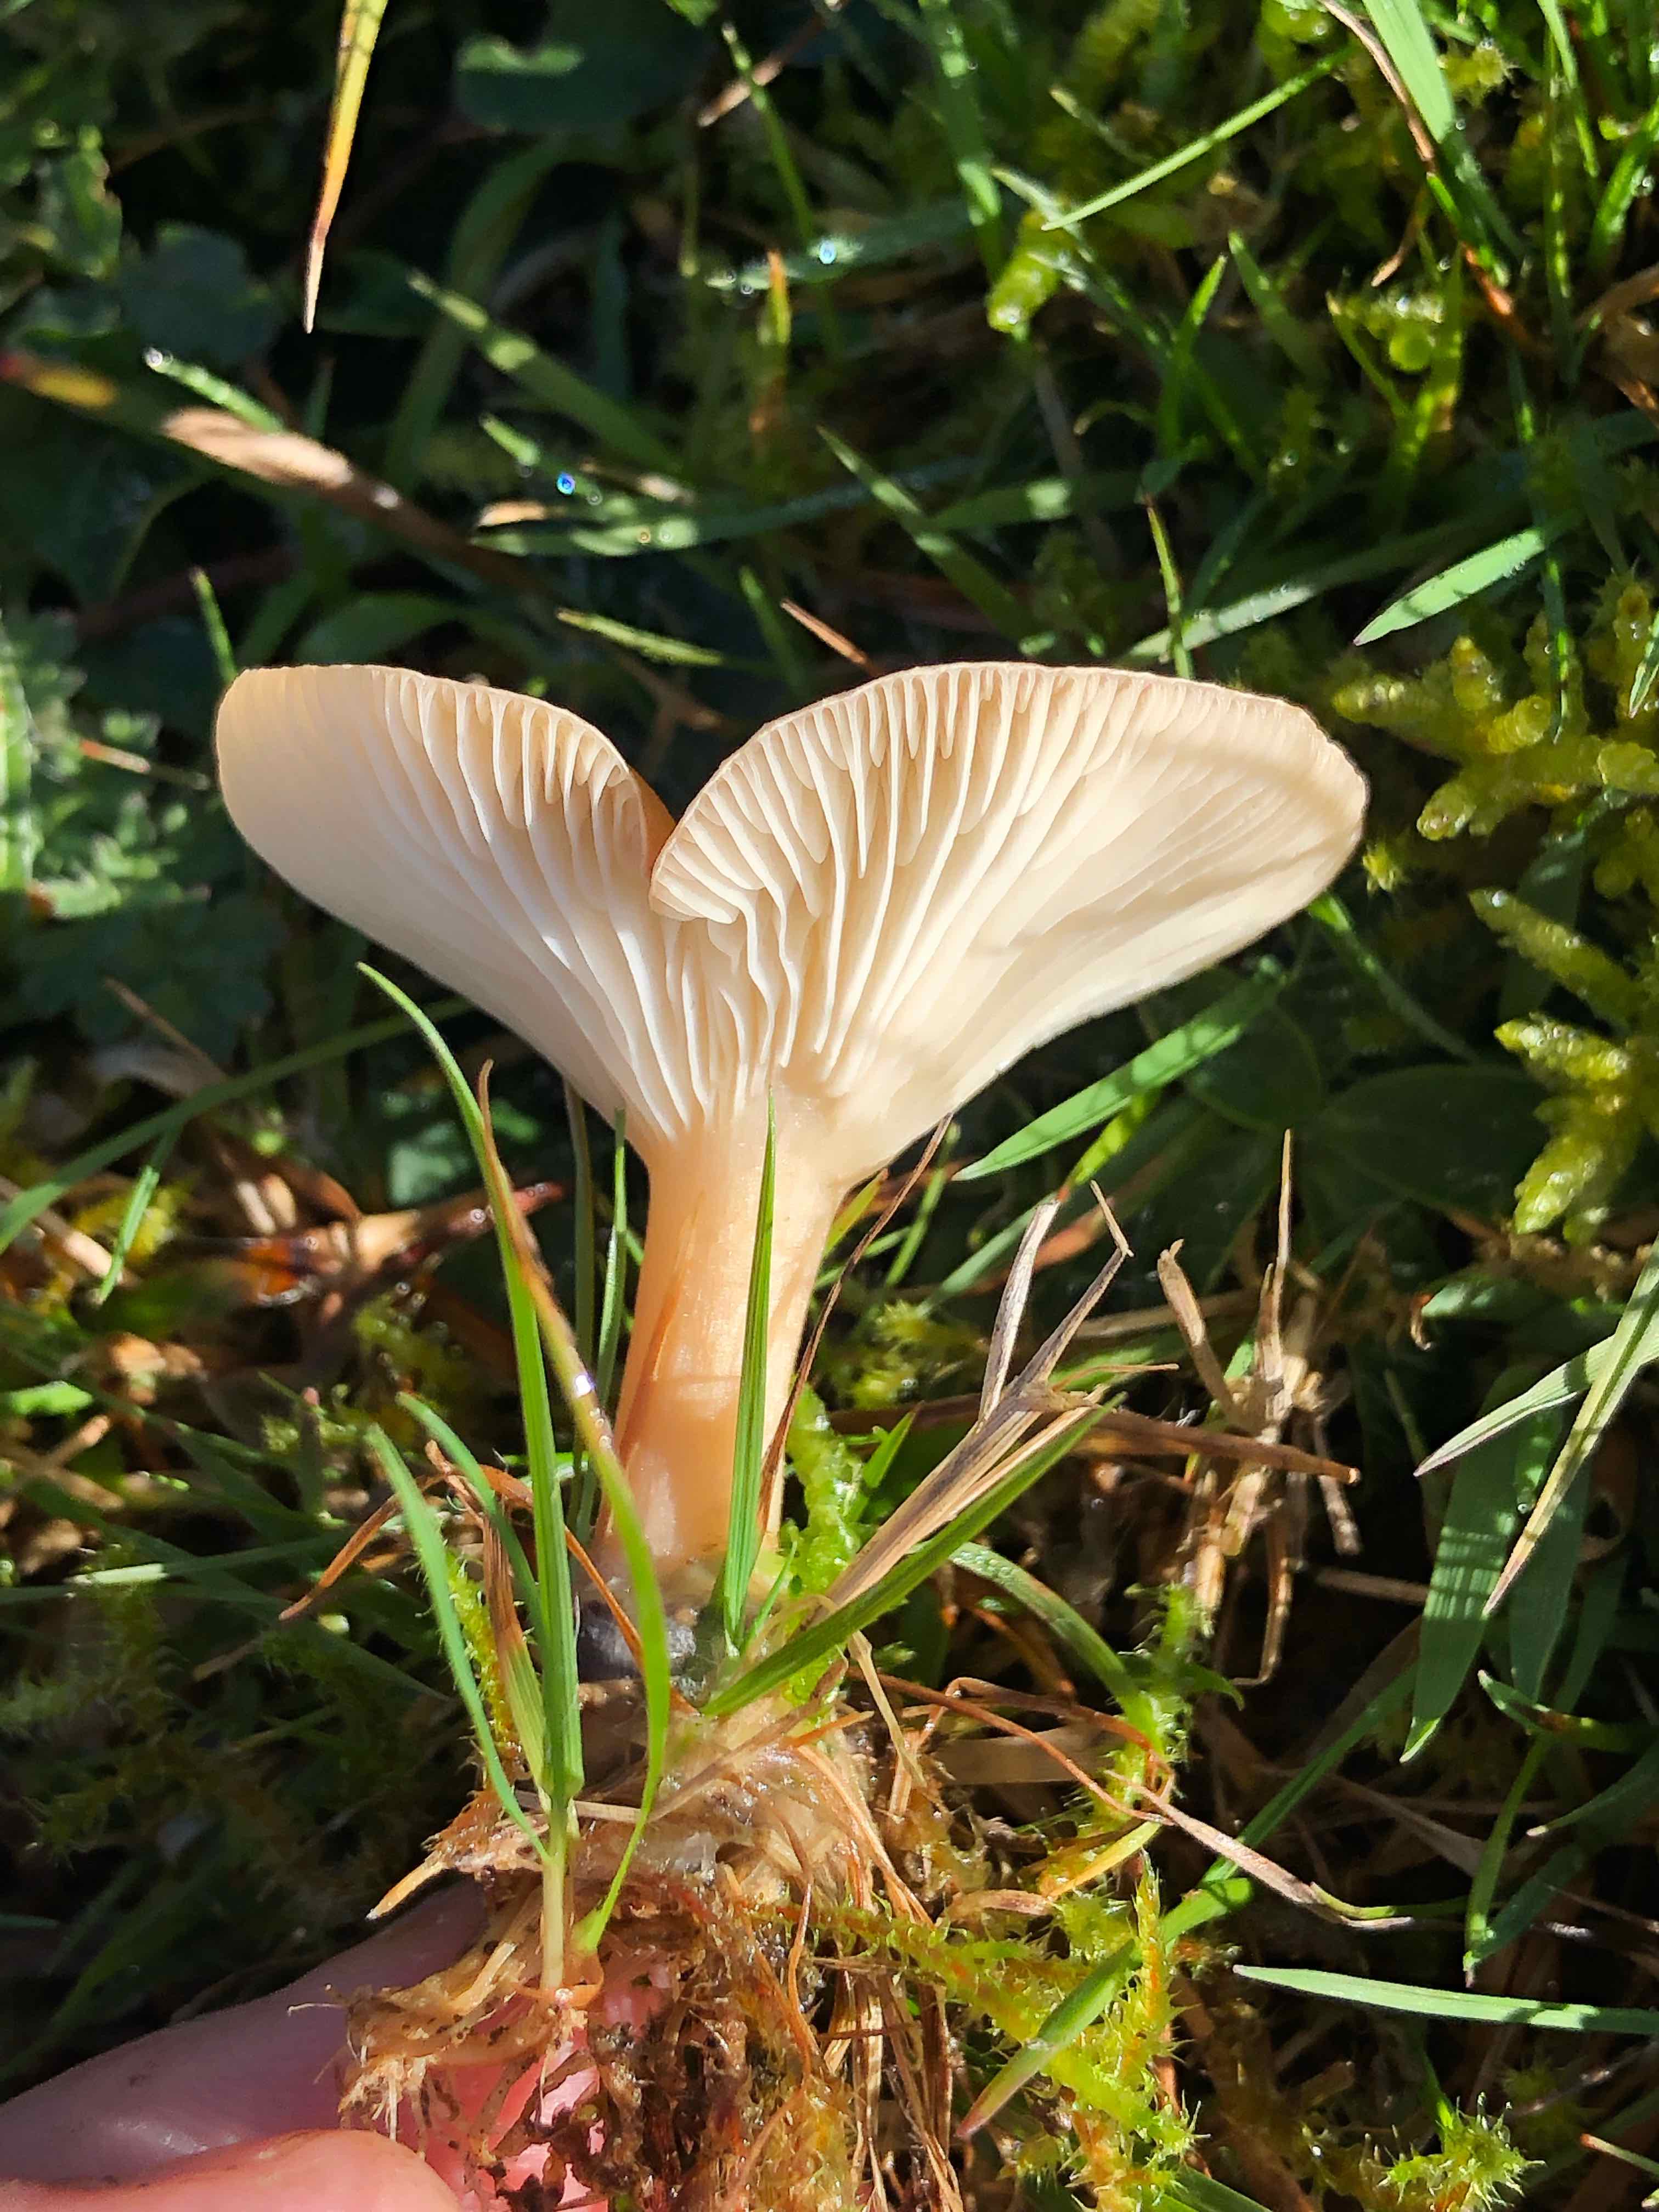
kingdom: Fungi
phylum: Basidiomycota
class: Agaricomycetes
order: Agaricales
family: Tricholomataceae
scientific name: Tricholomataceae
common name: ridderhatfamilien
